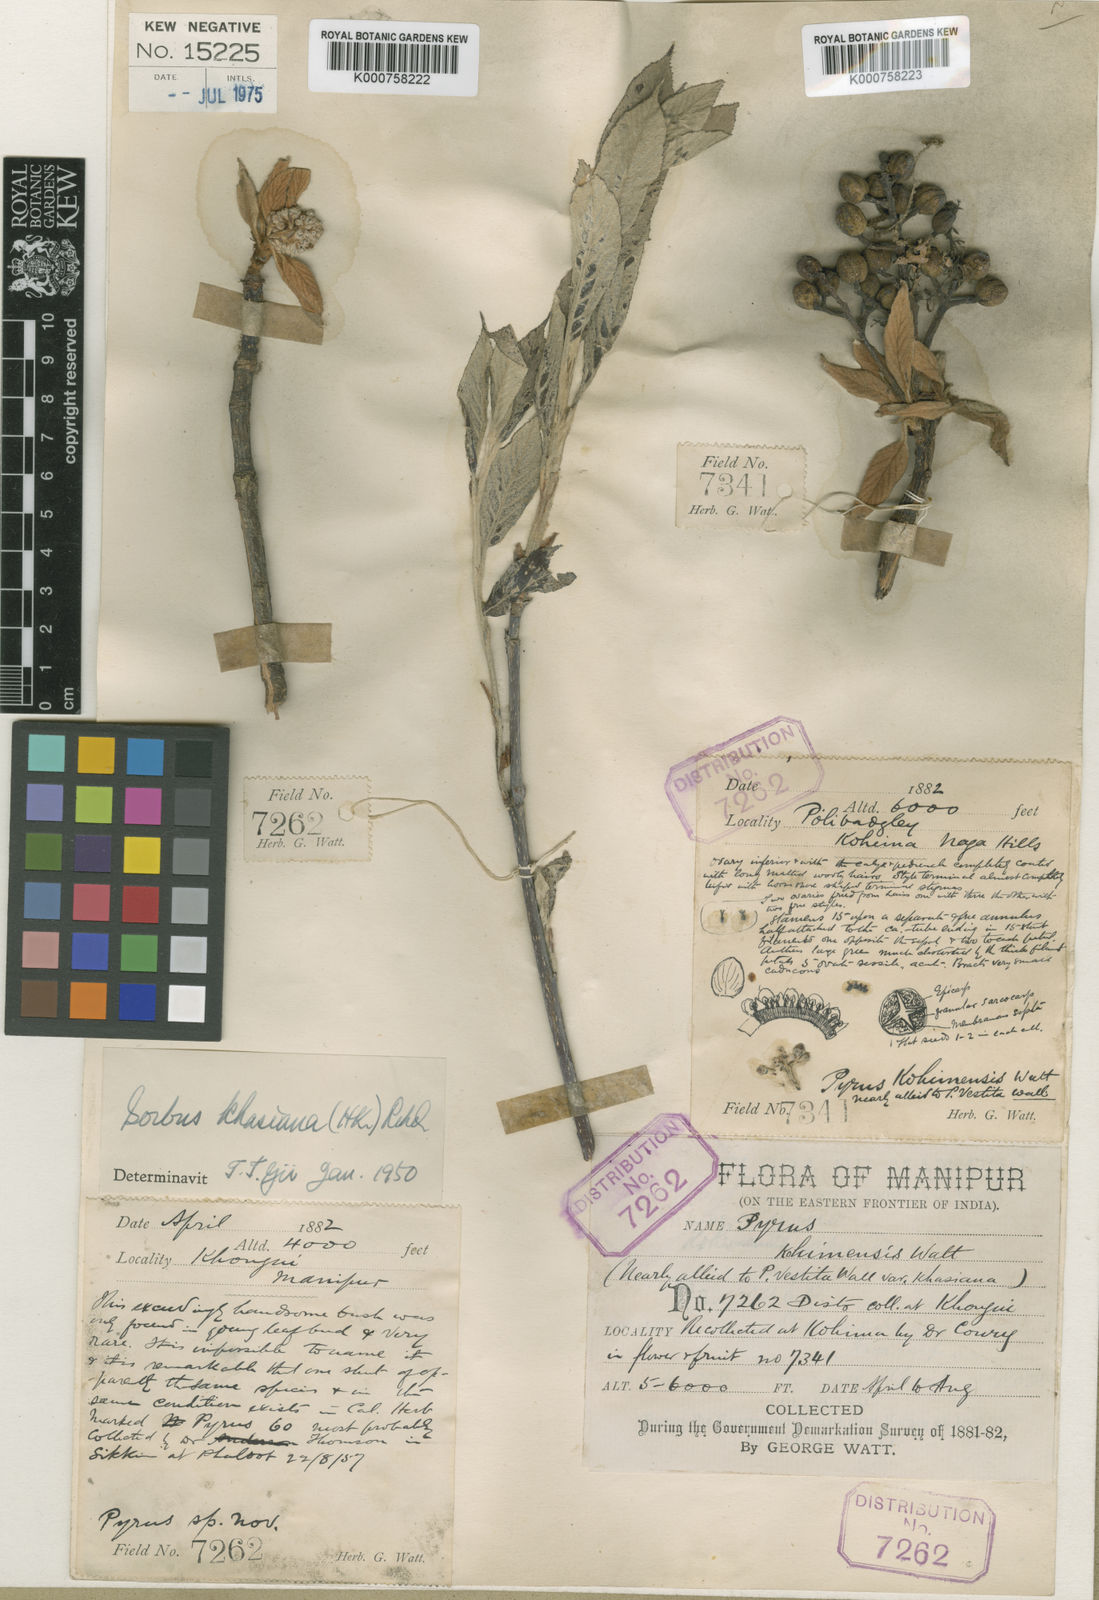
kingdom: Plantae
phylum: Tracheophyta
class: Magnoliopsida
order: Rosales
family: Rosaceae
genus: Micromeles
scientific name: Micromeles rhamnoides
